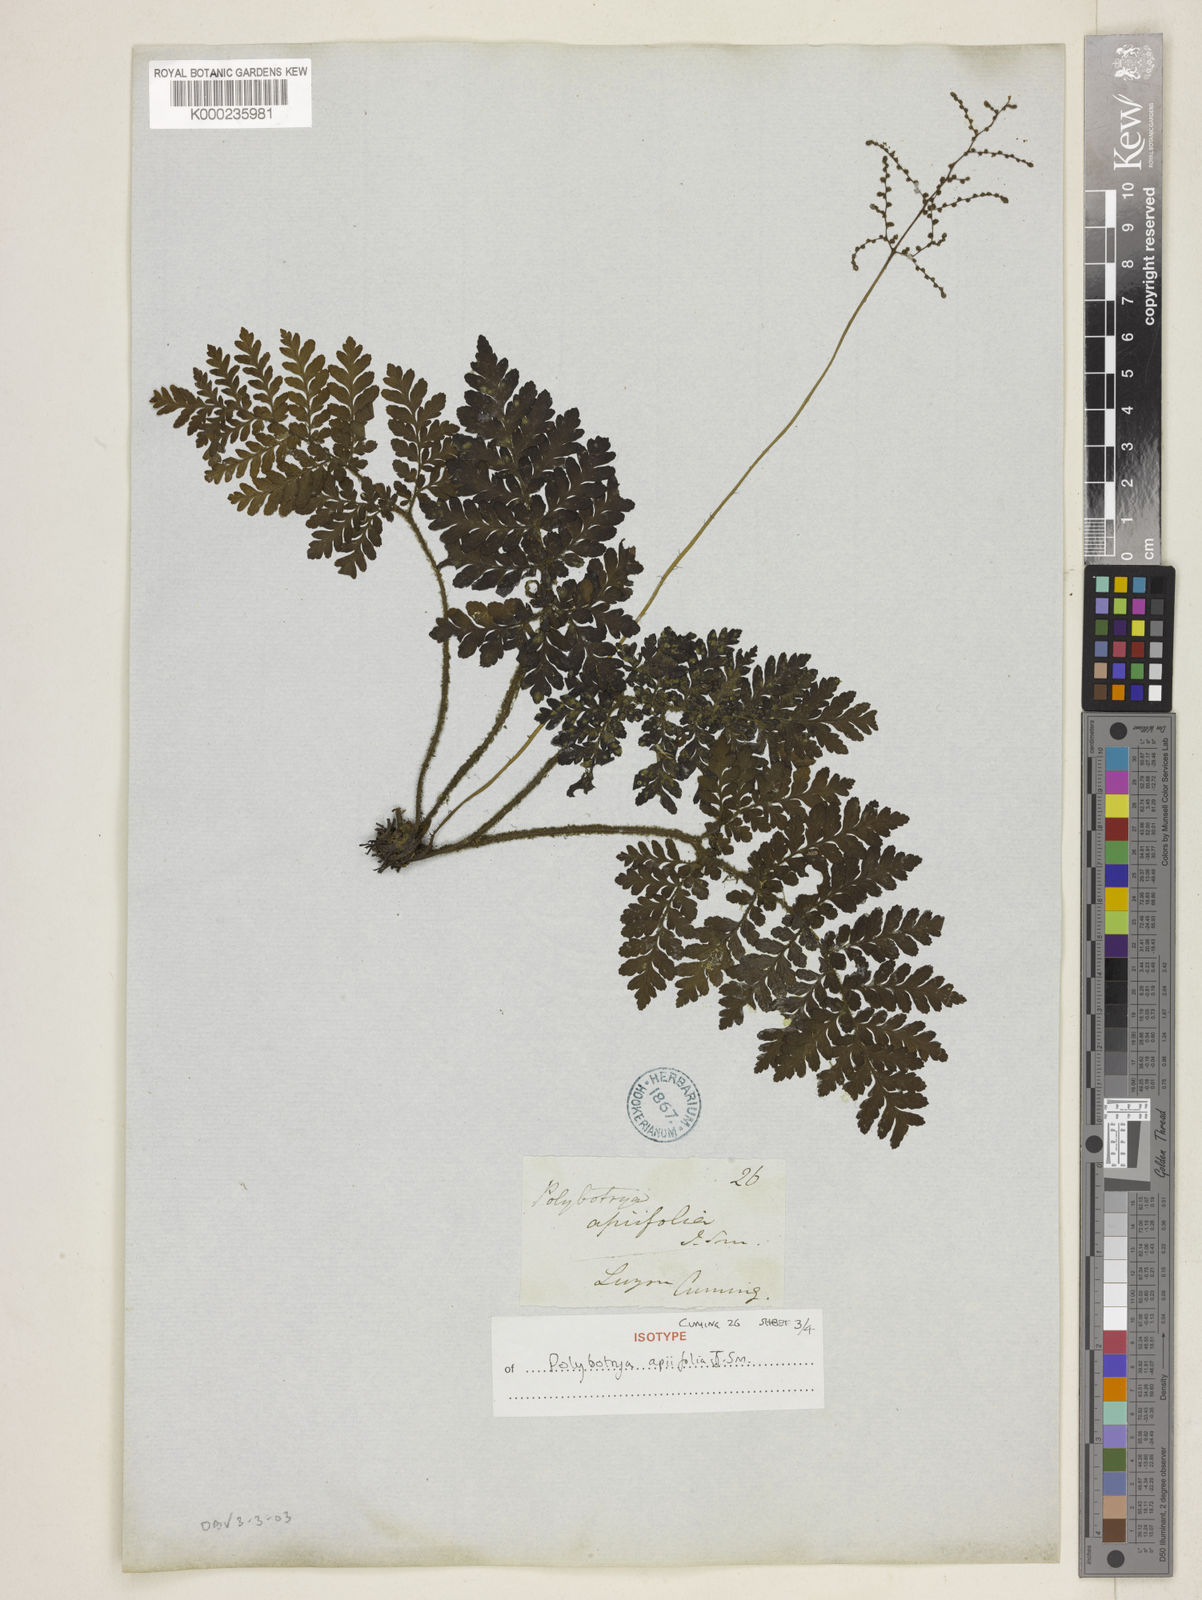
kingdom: Plantae
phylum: Tracheophyta
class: Polypodiopsida
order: Polypodiales
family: Tectariaceae
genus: Psomiocarpa
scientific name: Psomiocarpa
